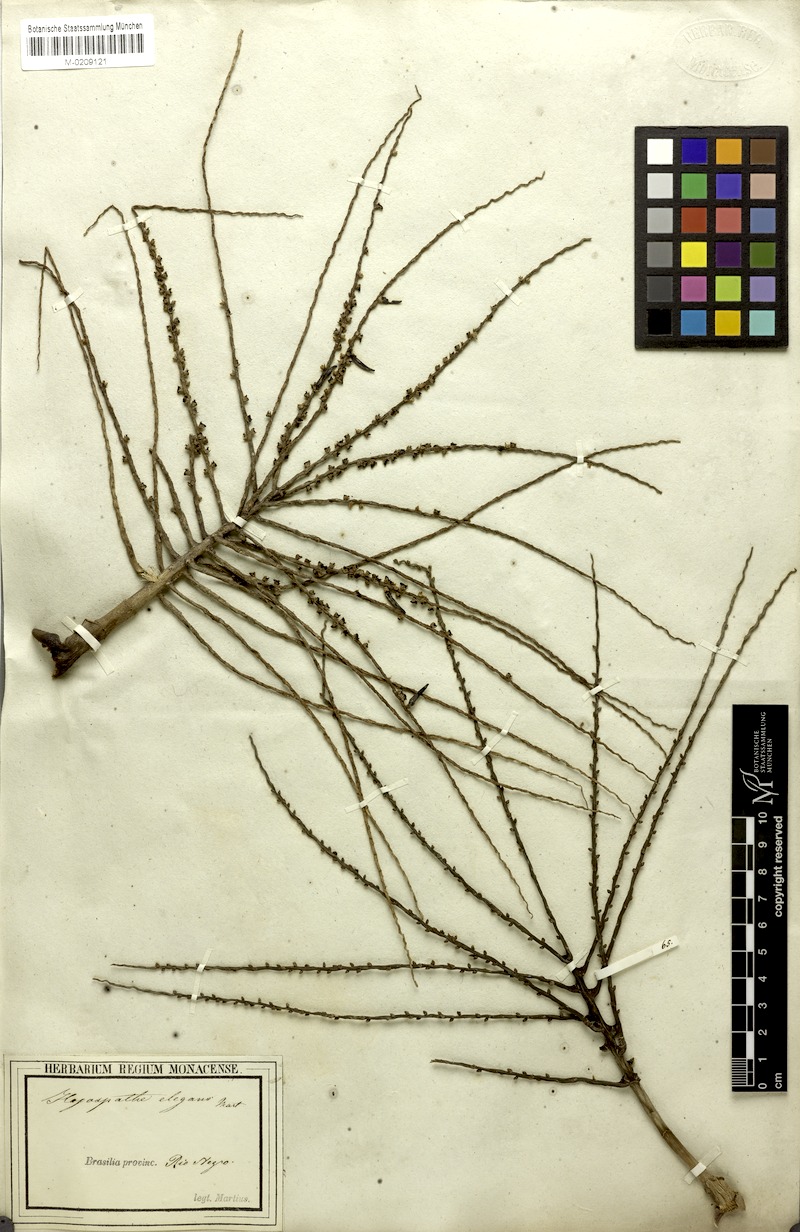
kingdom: Plantae
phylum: Tracheophyta
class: Liliopsida
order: Arecales
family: Arecaceae
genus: Hyospathe
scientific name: Hyospathe elegans
